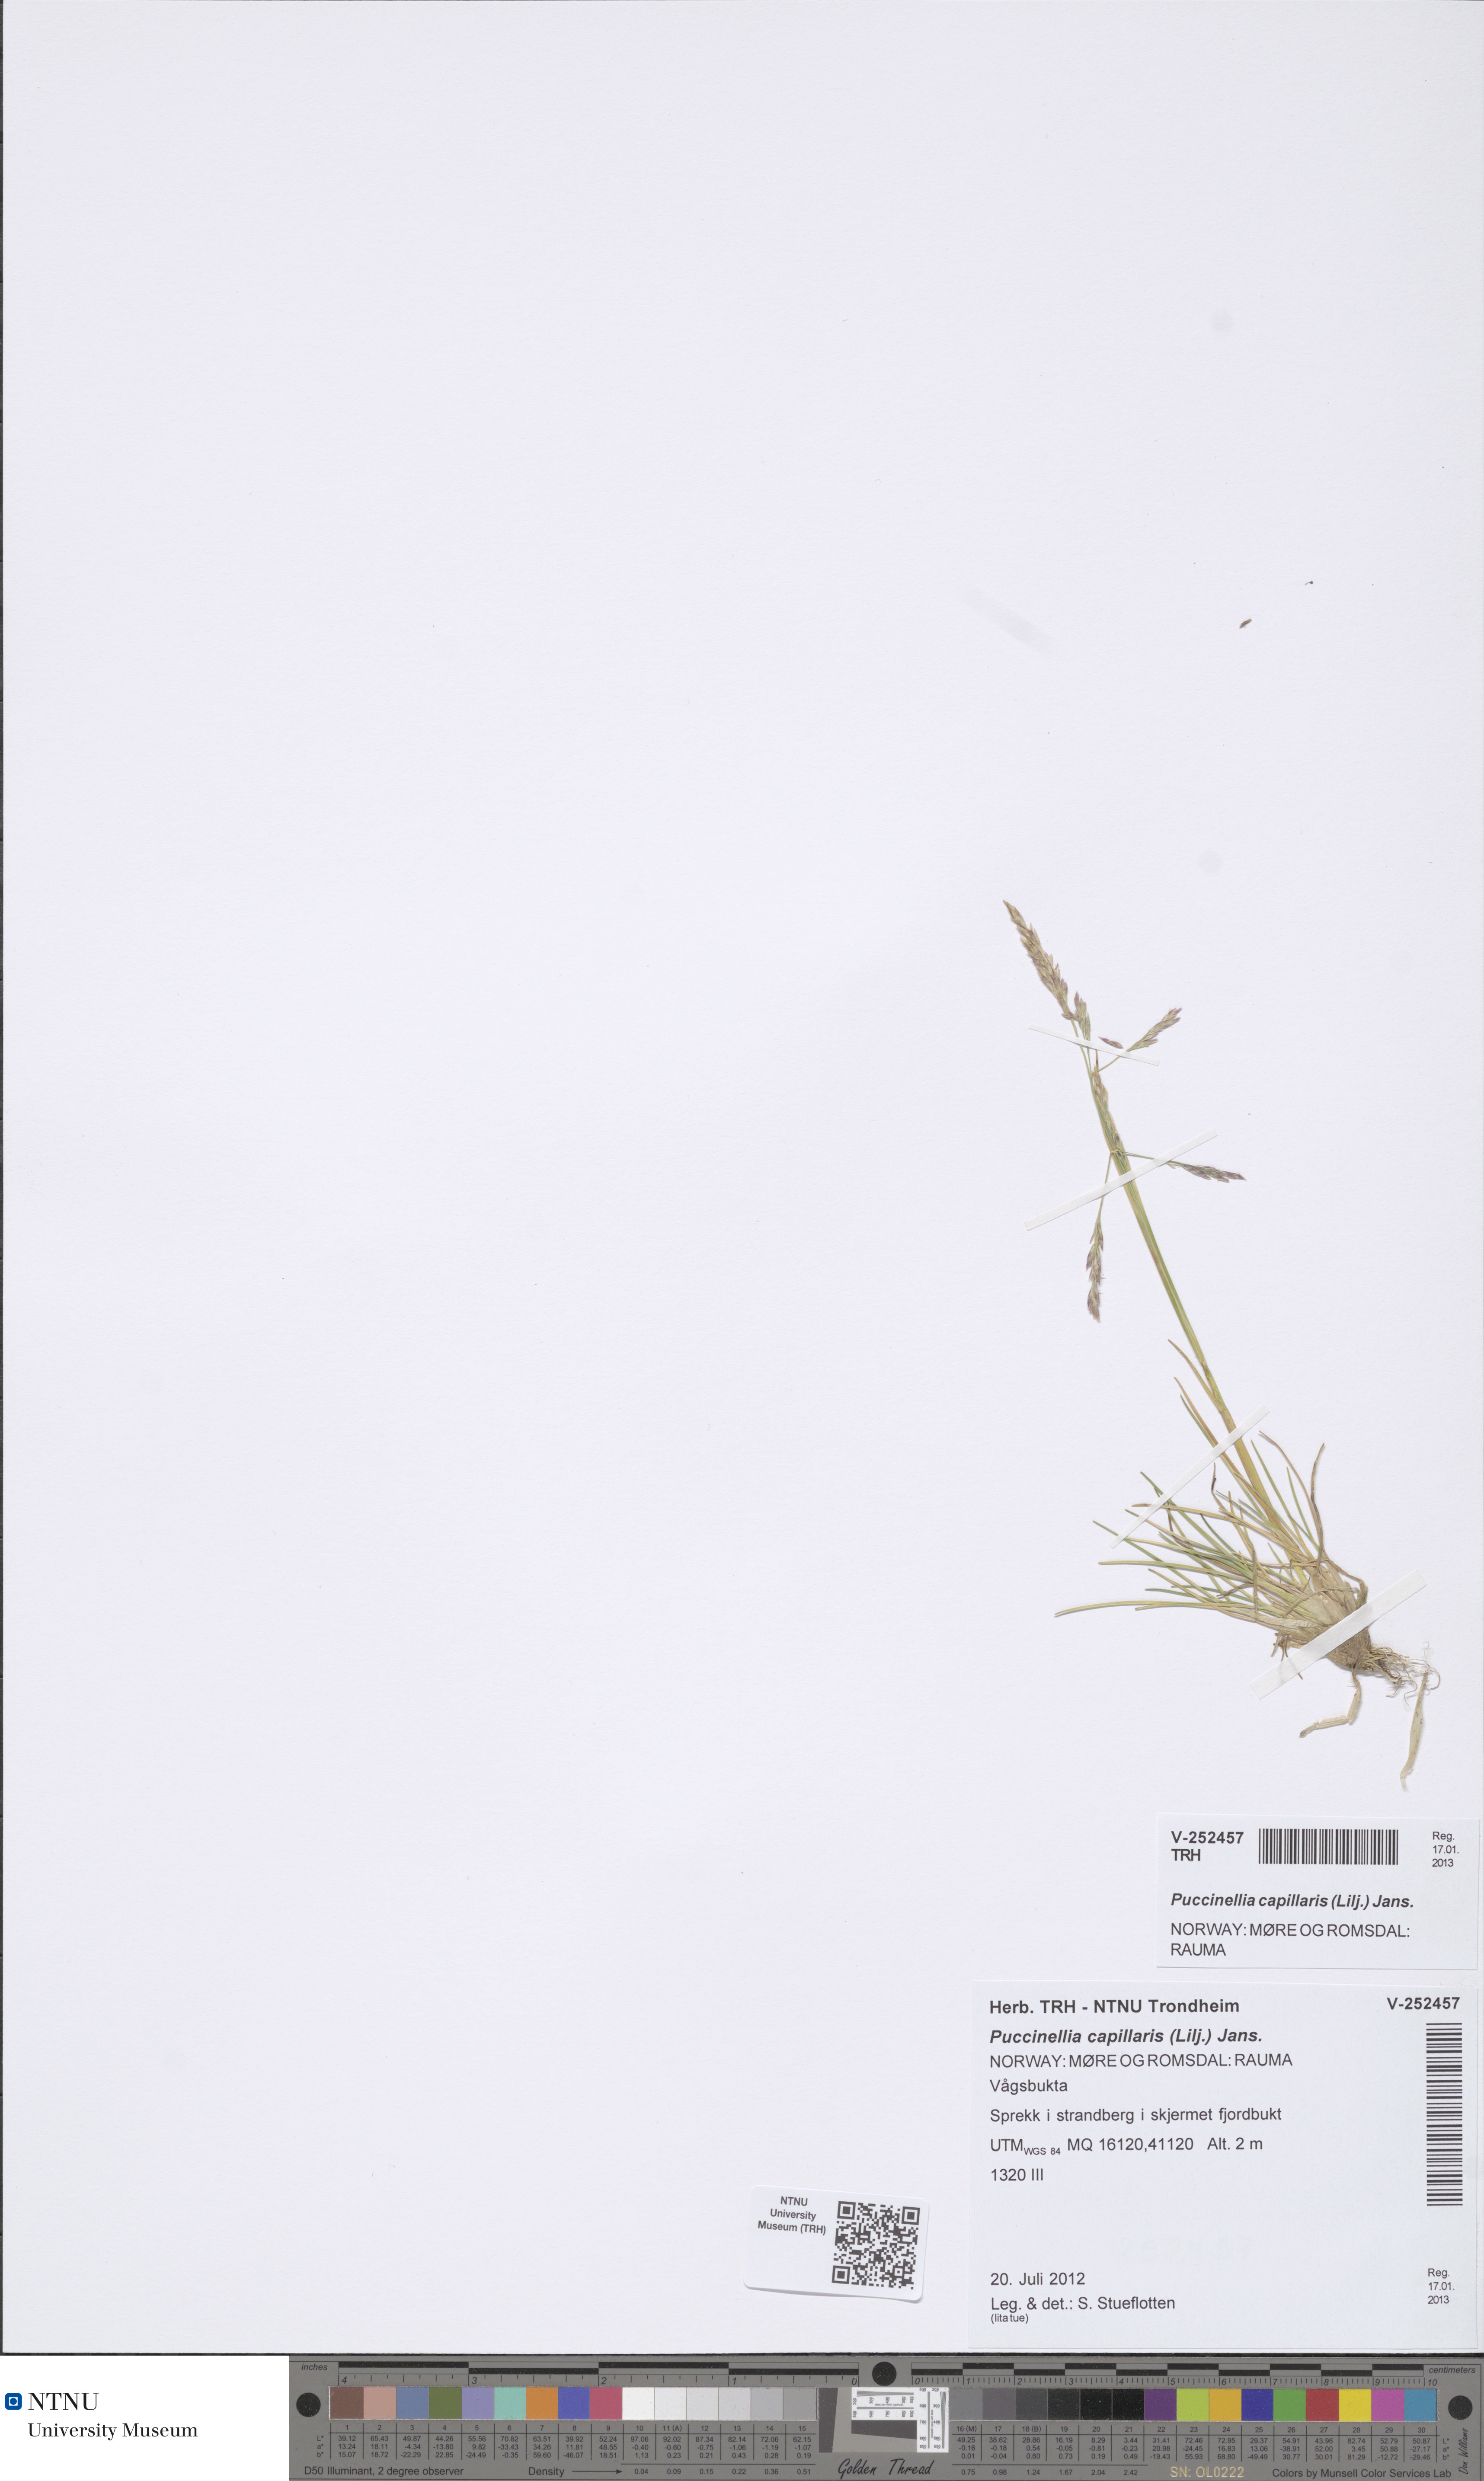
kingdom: Plantae
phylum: Tracheophyta
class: Liliopsida
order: Poales
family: Poaceae
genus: Puccinellia
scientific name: Puccinellia distans
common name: Weeping alkaligrass
